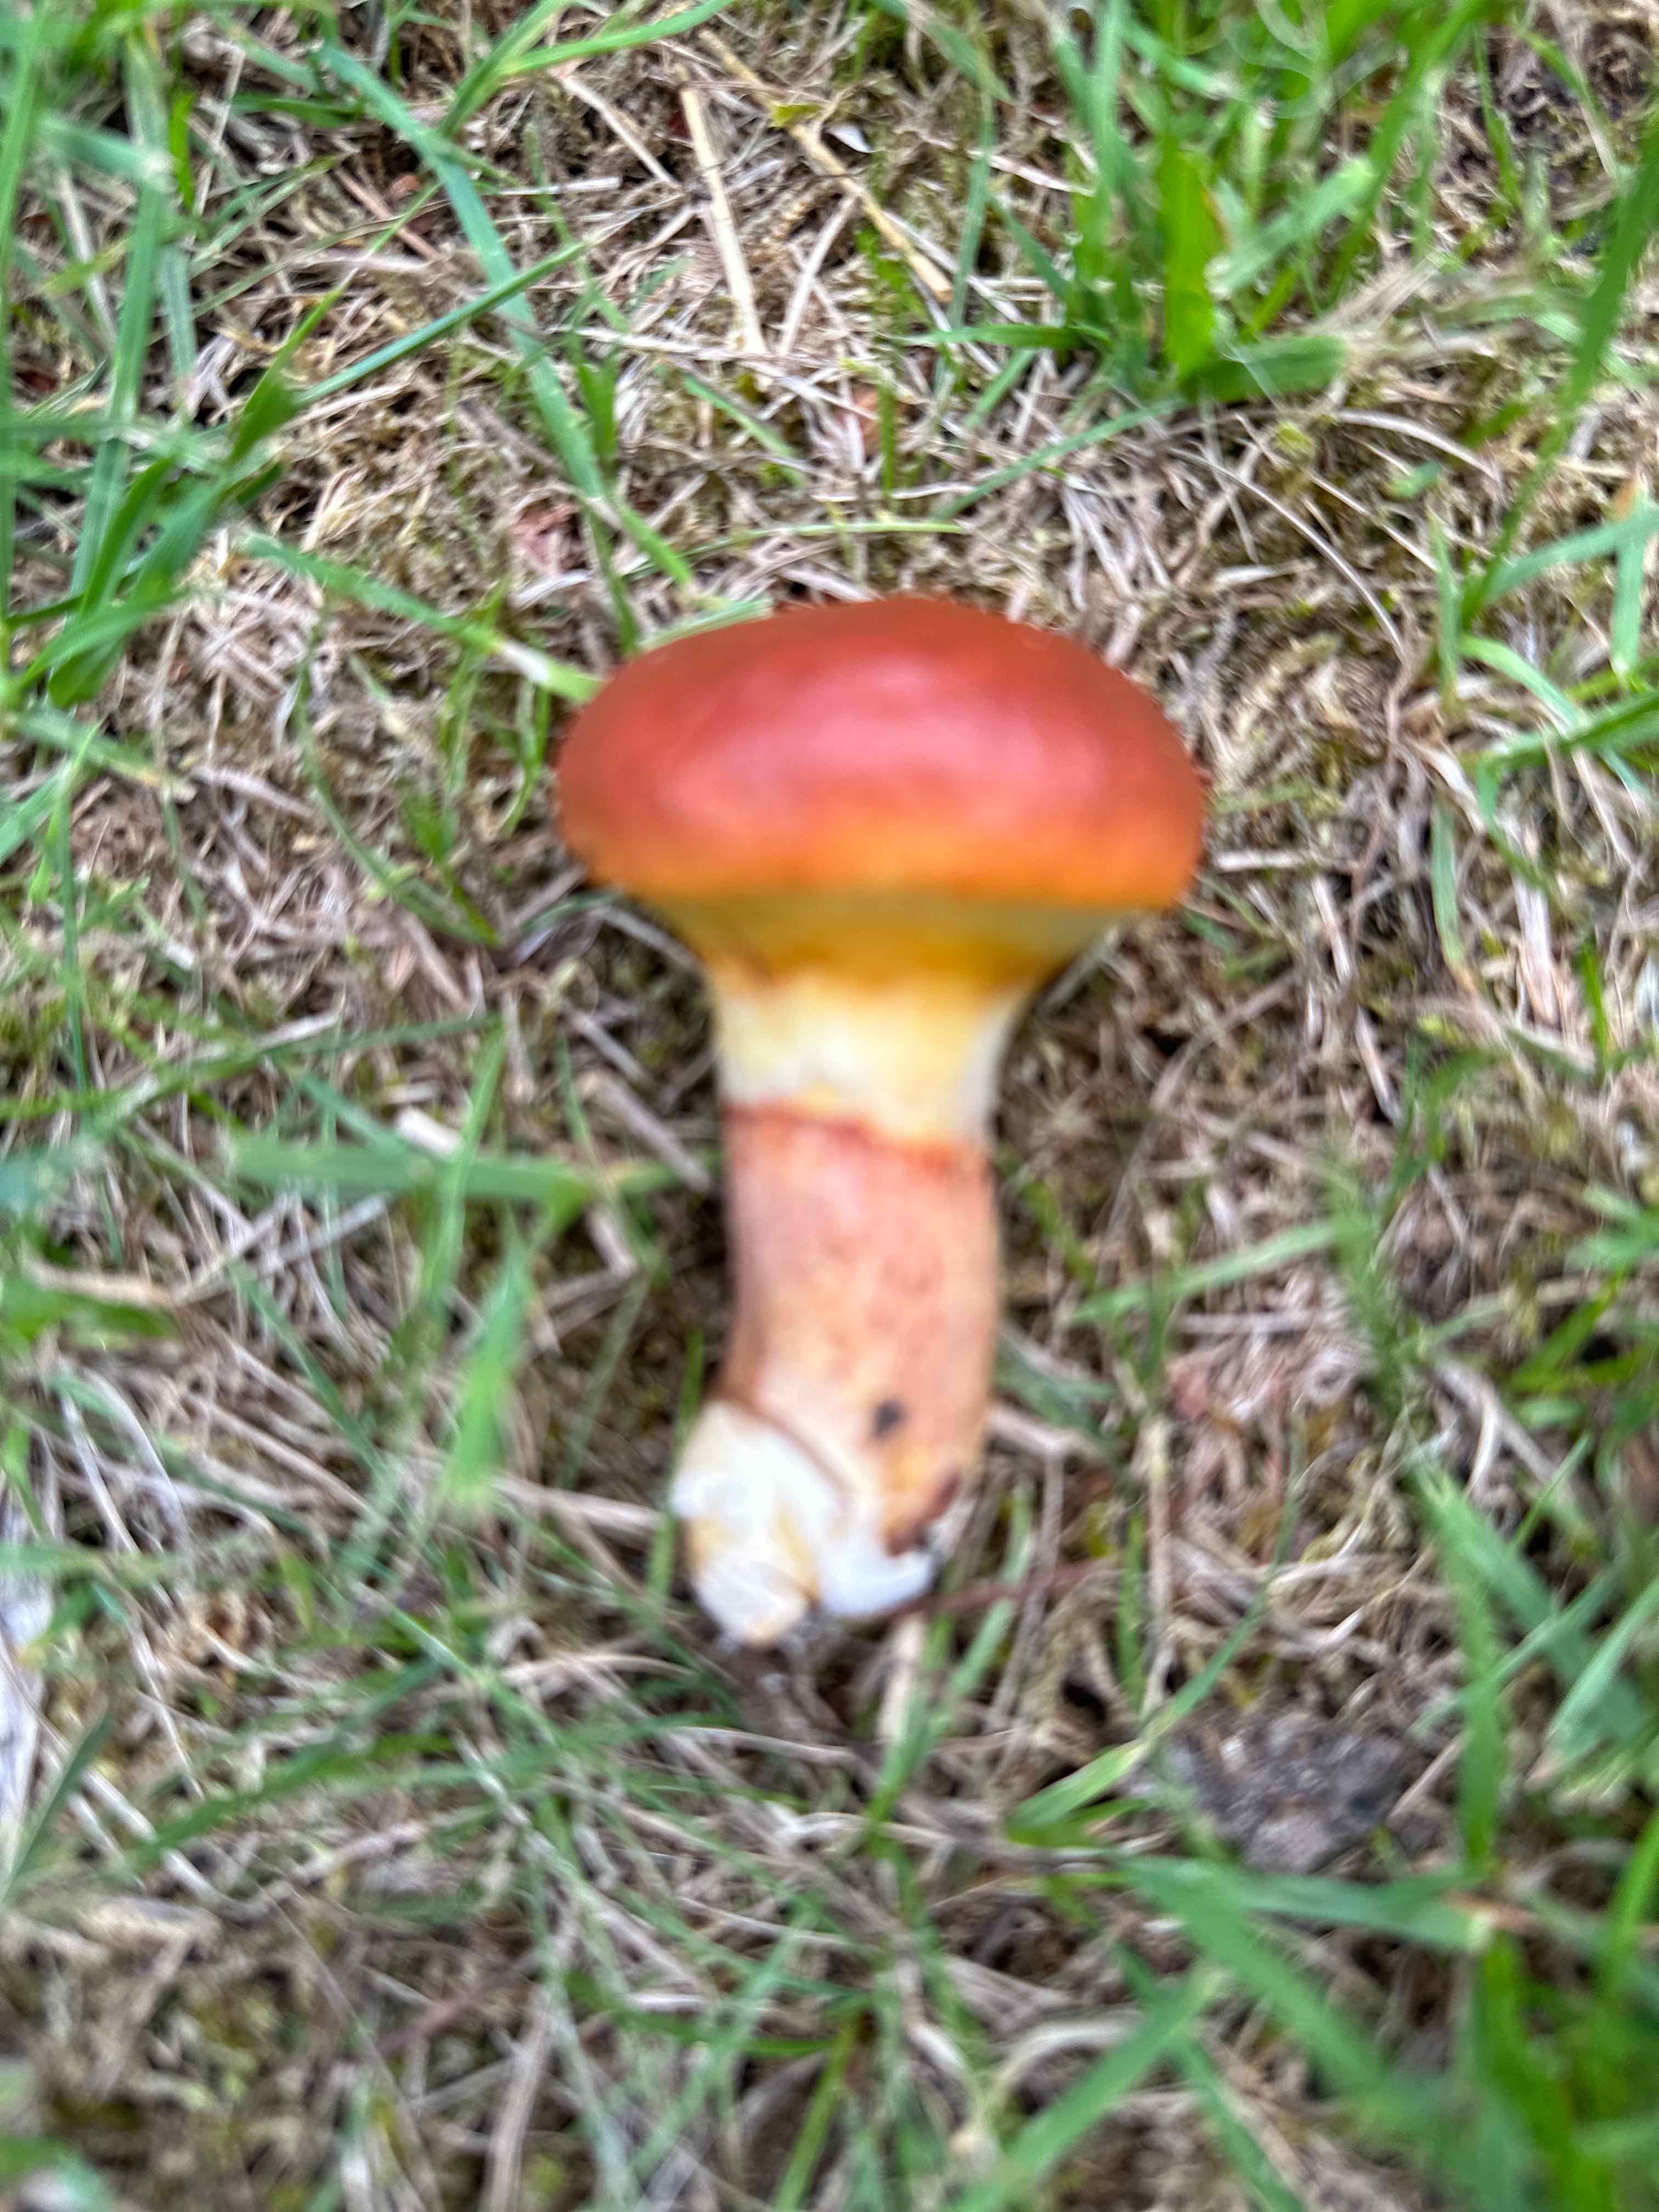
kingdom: Fungi
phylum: Basidiomycota
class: Agaricomycetes
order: Boletales
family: Suillaceae
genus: Suillus
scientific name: Suillus grevillei
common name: lærke-slimrørhat
